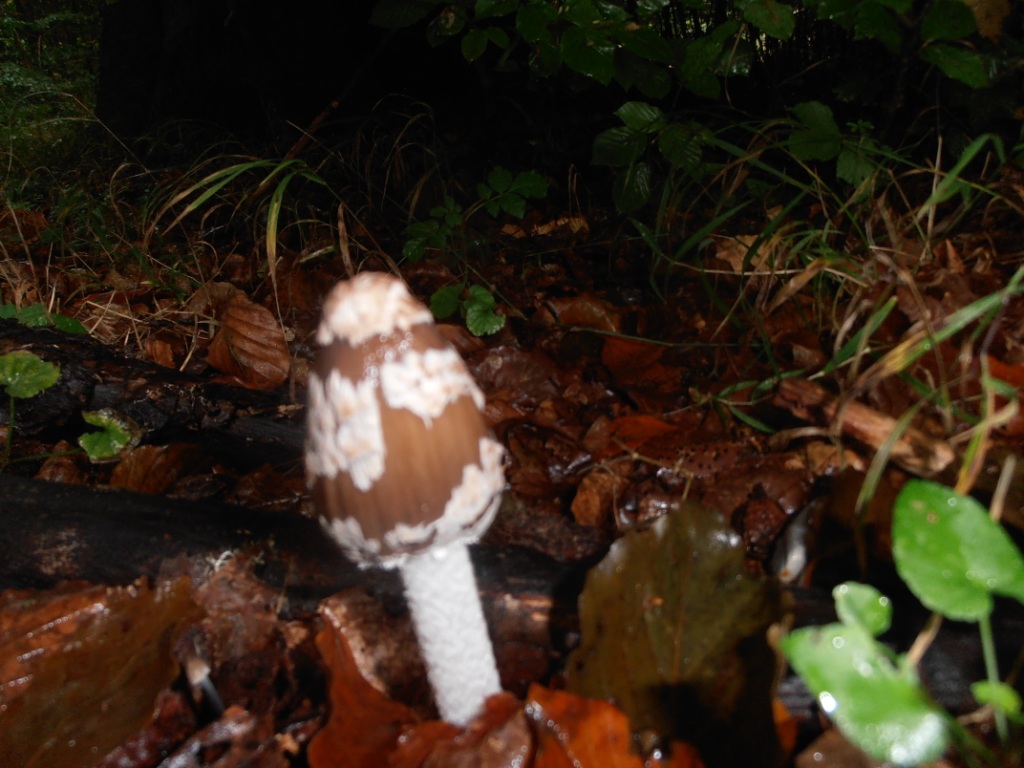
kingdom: Fungi
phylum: Basidiomycota
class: Agaricomycetes
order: Agaricales
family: Psathyrellaceae
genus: Coprinopsis
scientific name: Coprinopsis picacea
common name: skade-blækhat
